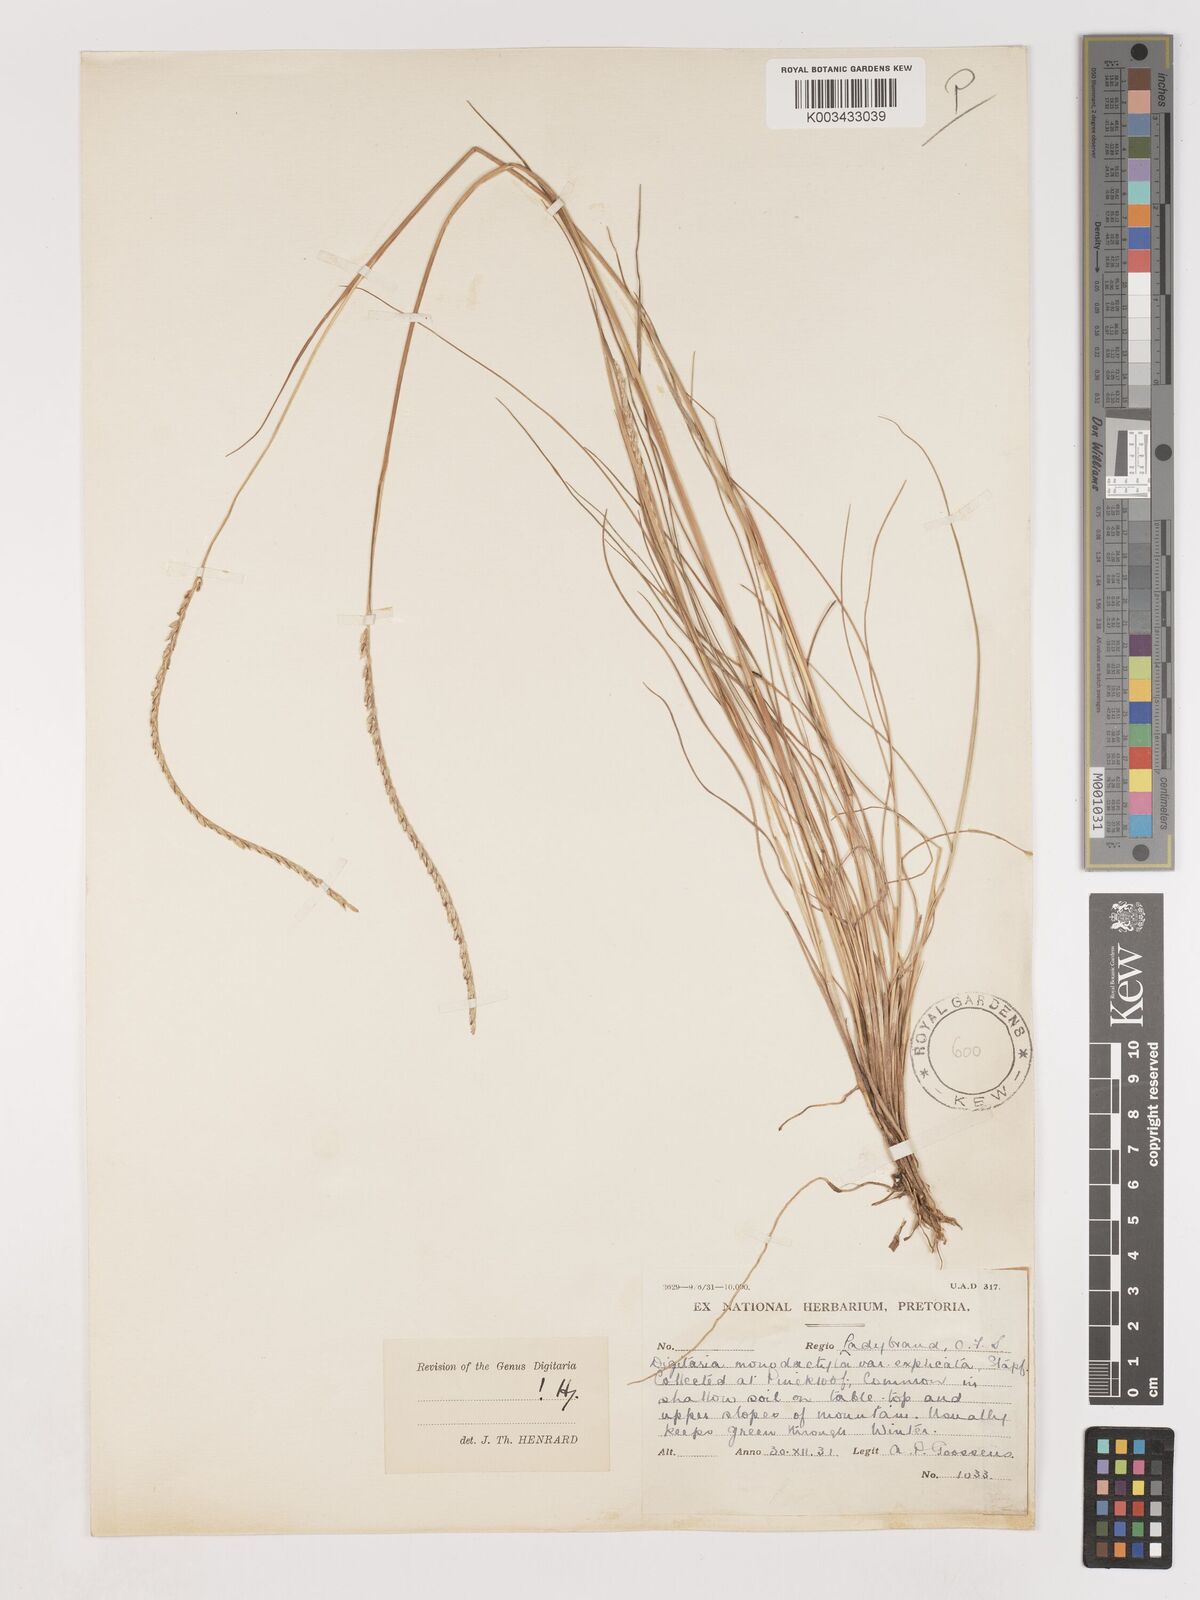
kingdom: Plantae
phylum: Tracheophyta
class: Liliopsida
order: Poales
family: Poaceae
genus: Digitaria
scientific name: Digitaria monodactyla
